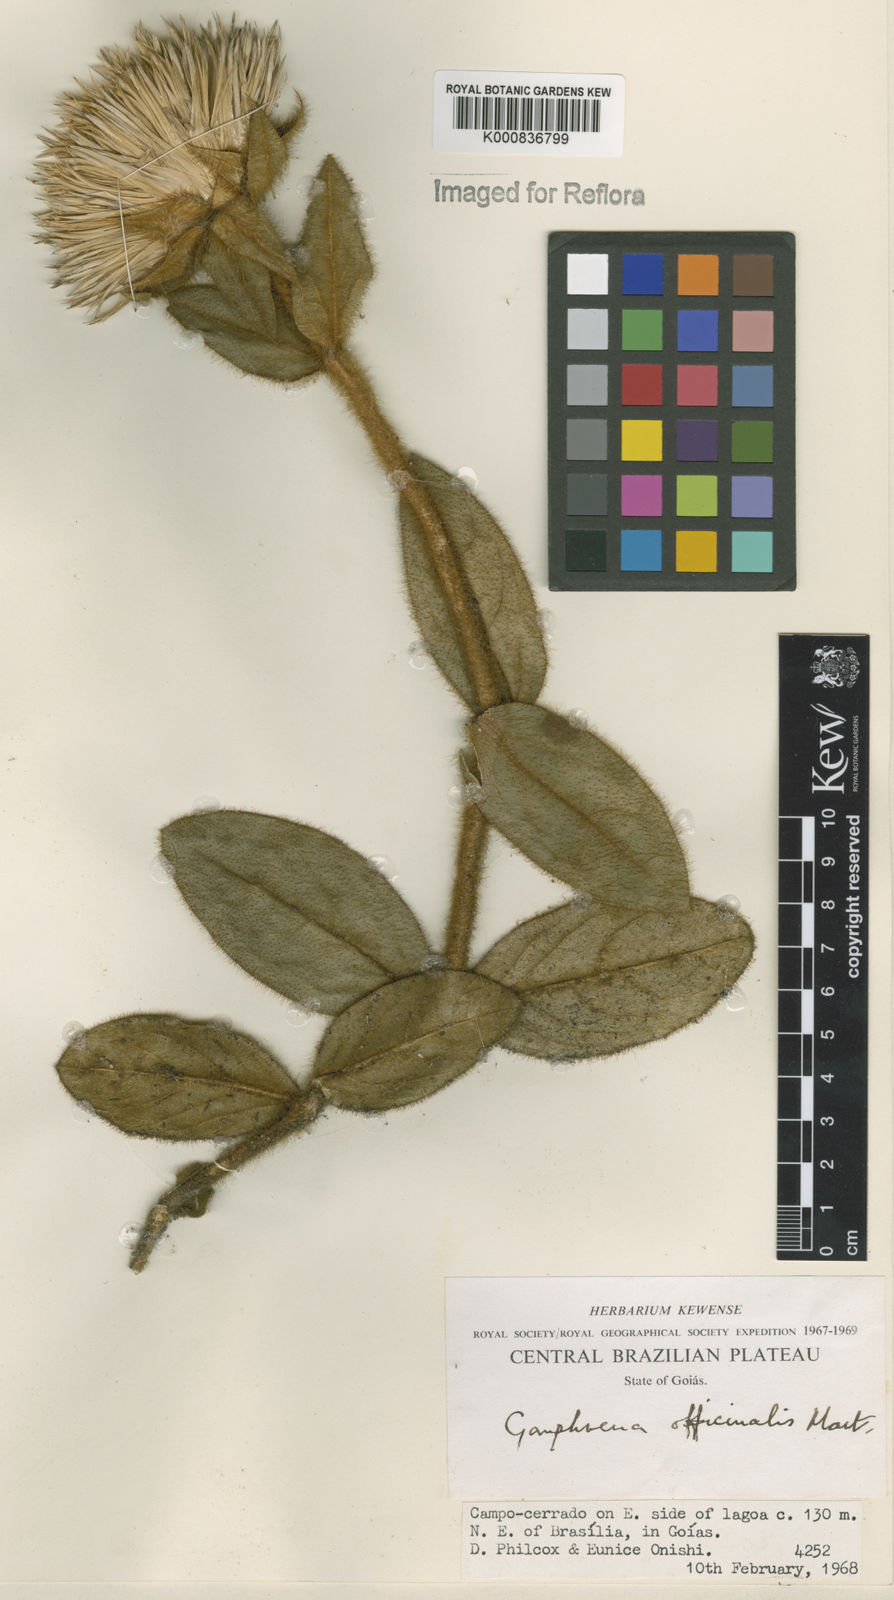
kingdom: Plantae
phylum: Tracheophyta
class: Magnoliopsida
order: Caryophyllales
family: Amaranthaceae
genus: Gomphrena
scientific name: Gomphrena arborescens
